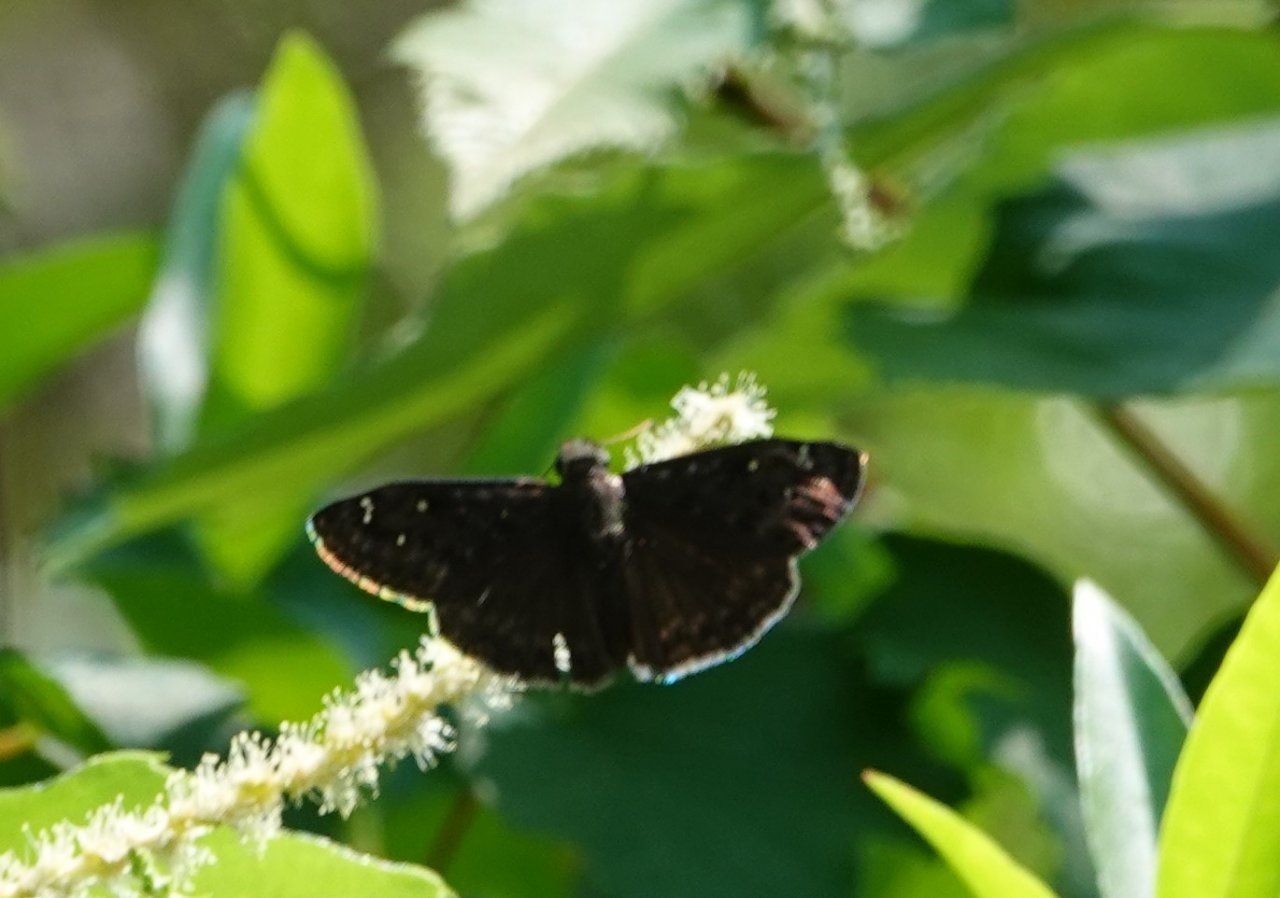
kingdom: Animalia
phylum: Arthropoda
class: Insecta
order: Lepidoptera
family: Hesperiidae
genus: Gesta
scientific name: Gesta
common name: Horace's Duskywing
